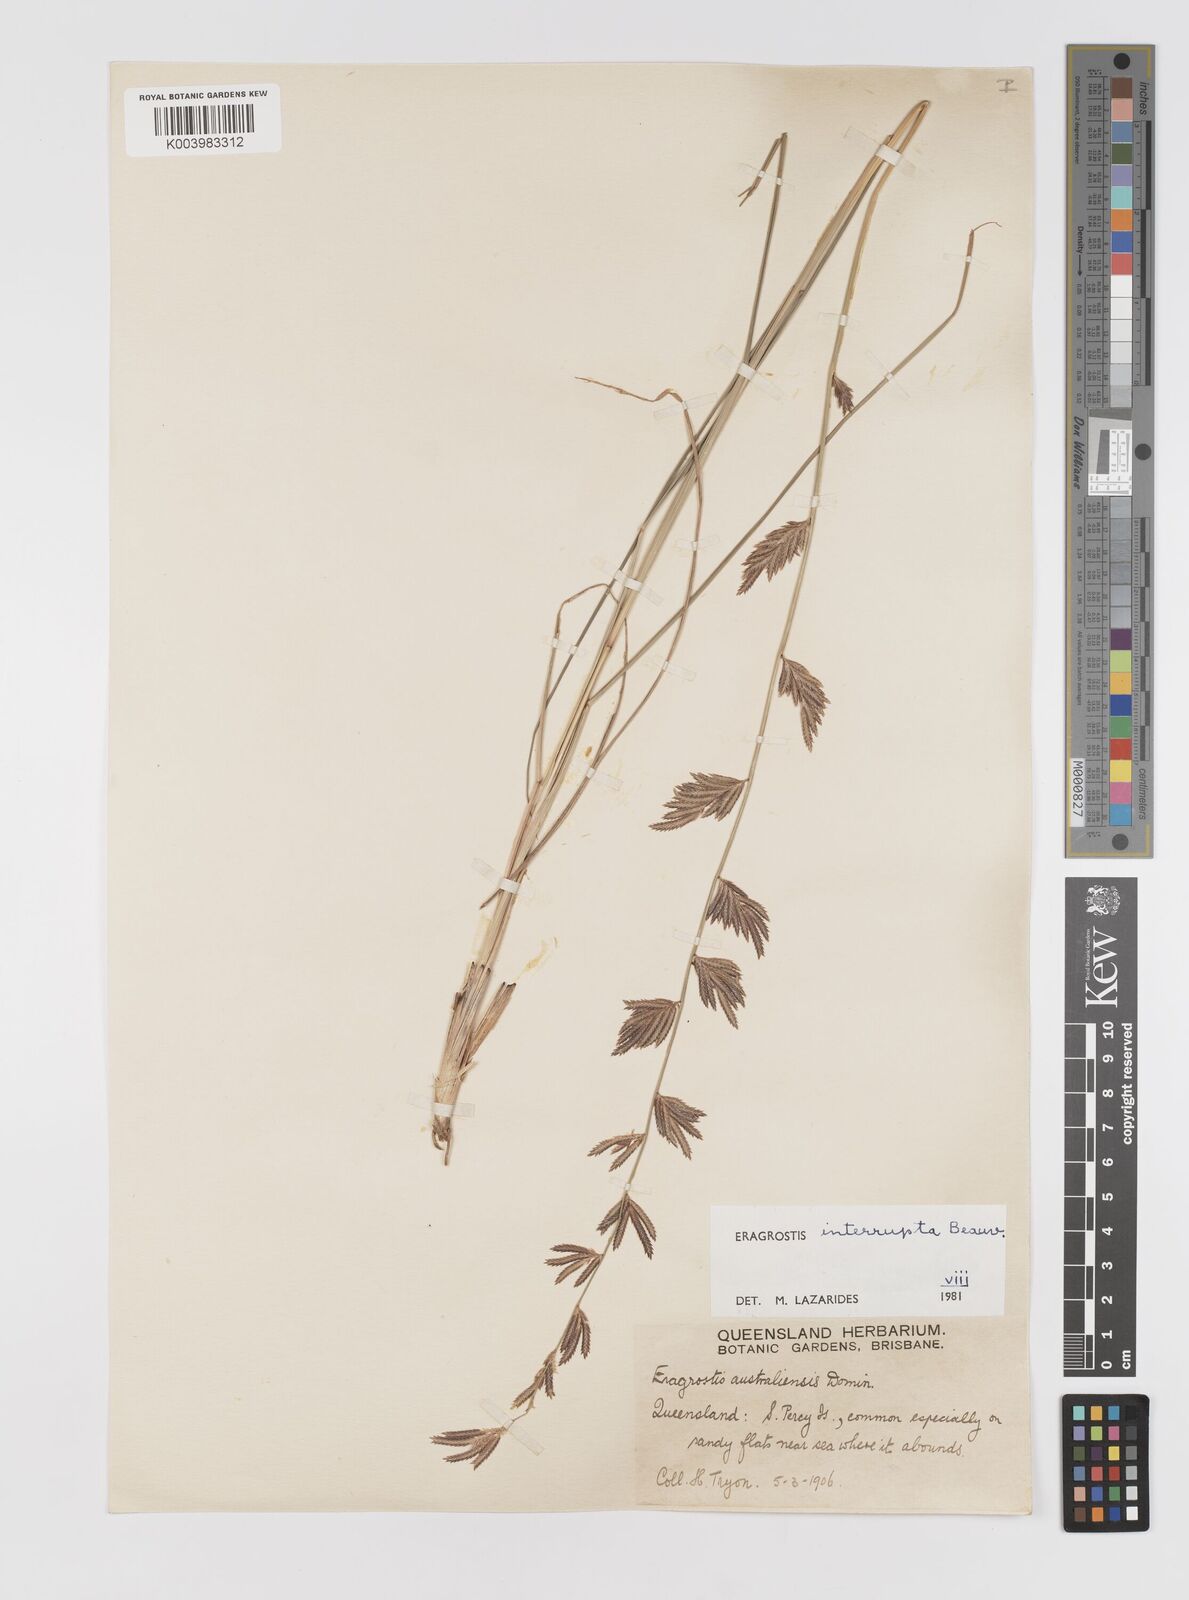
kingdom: Plantae
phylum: Tracheophyta
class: Liliopsida
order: Poales
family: Poaceae
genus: Eragrostis
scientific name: Eragrostis interrupta
